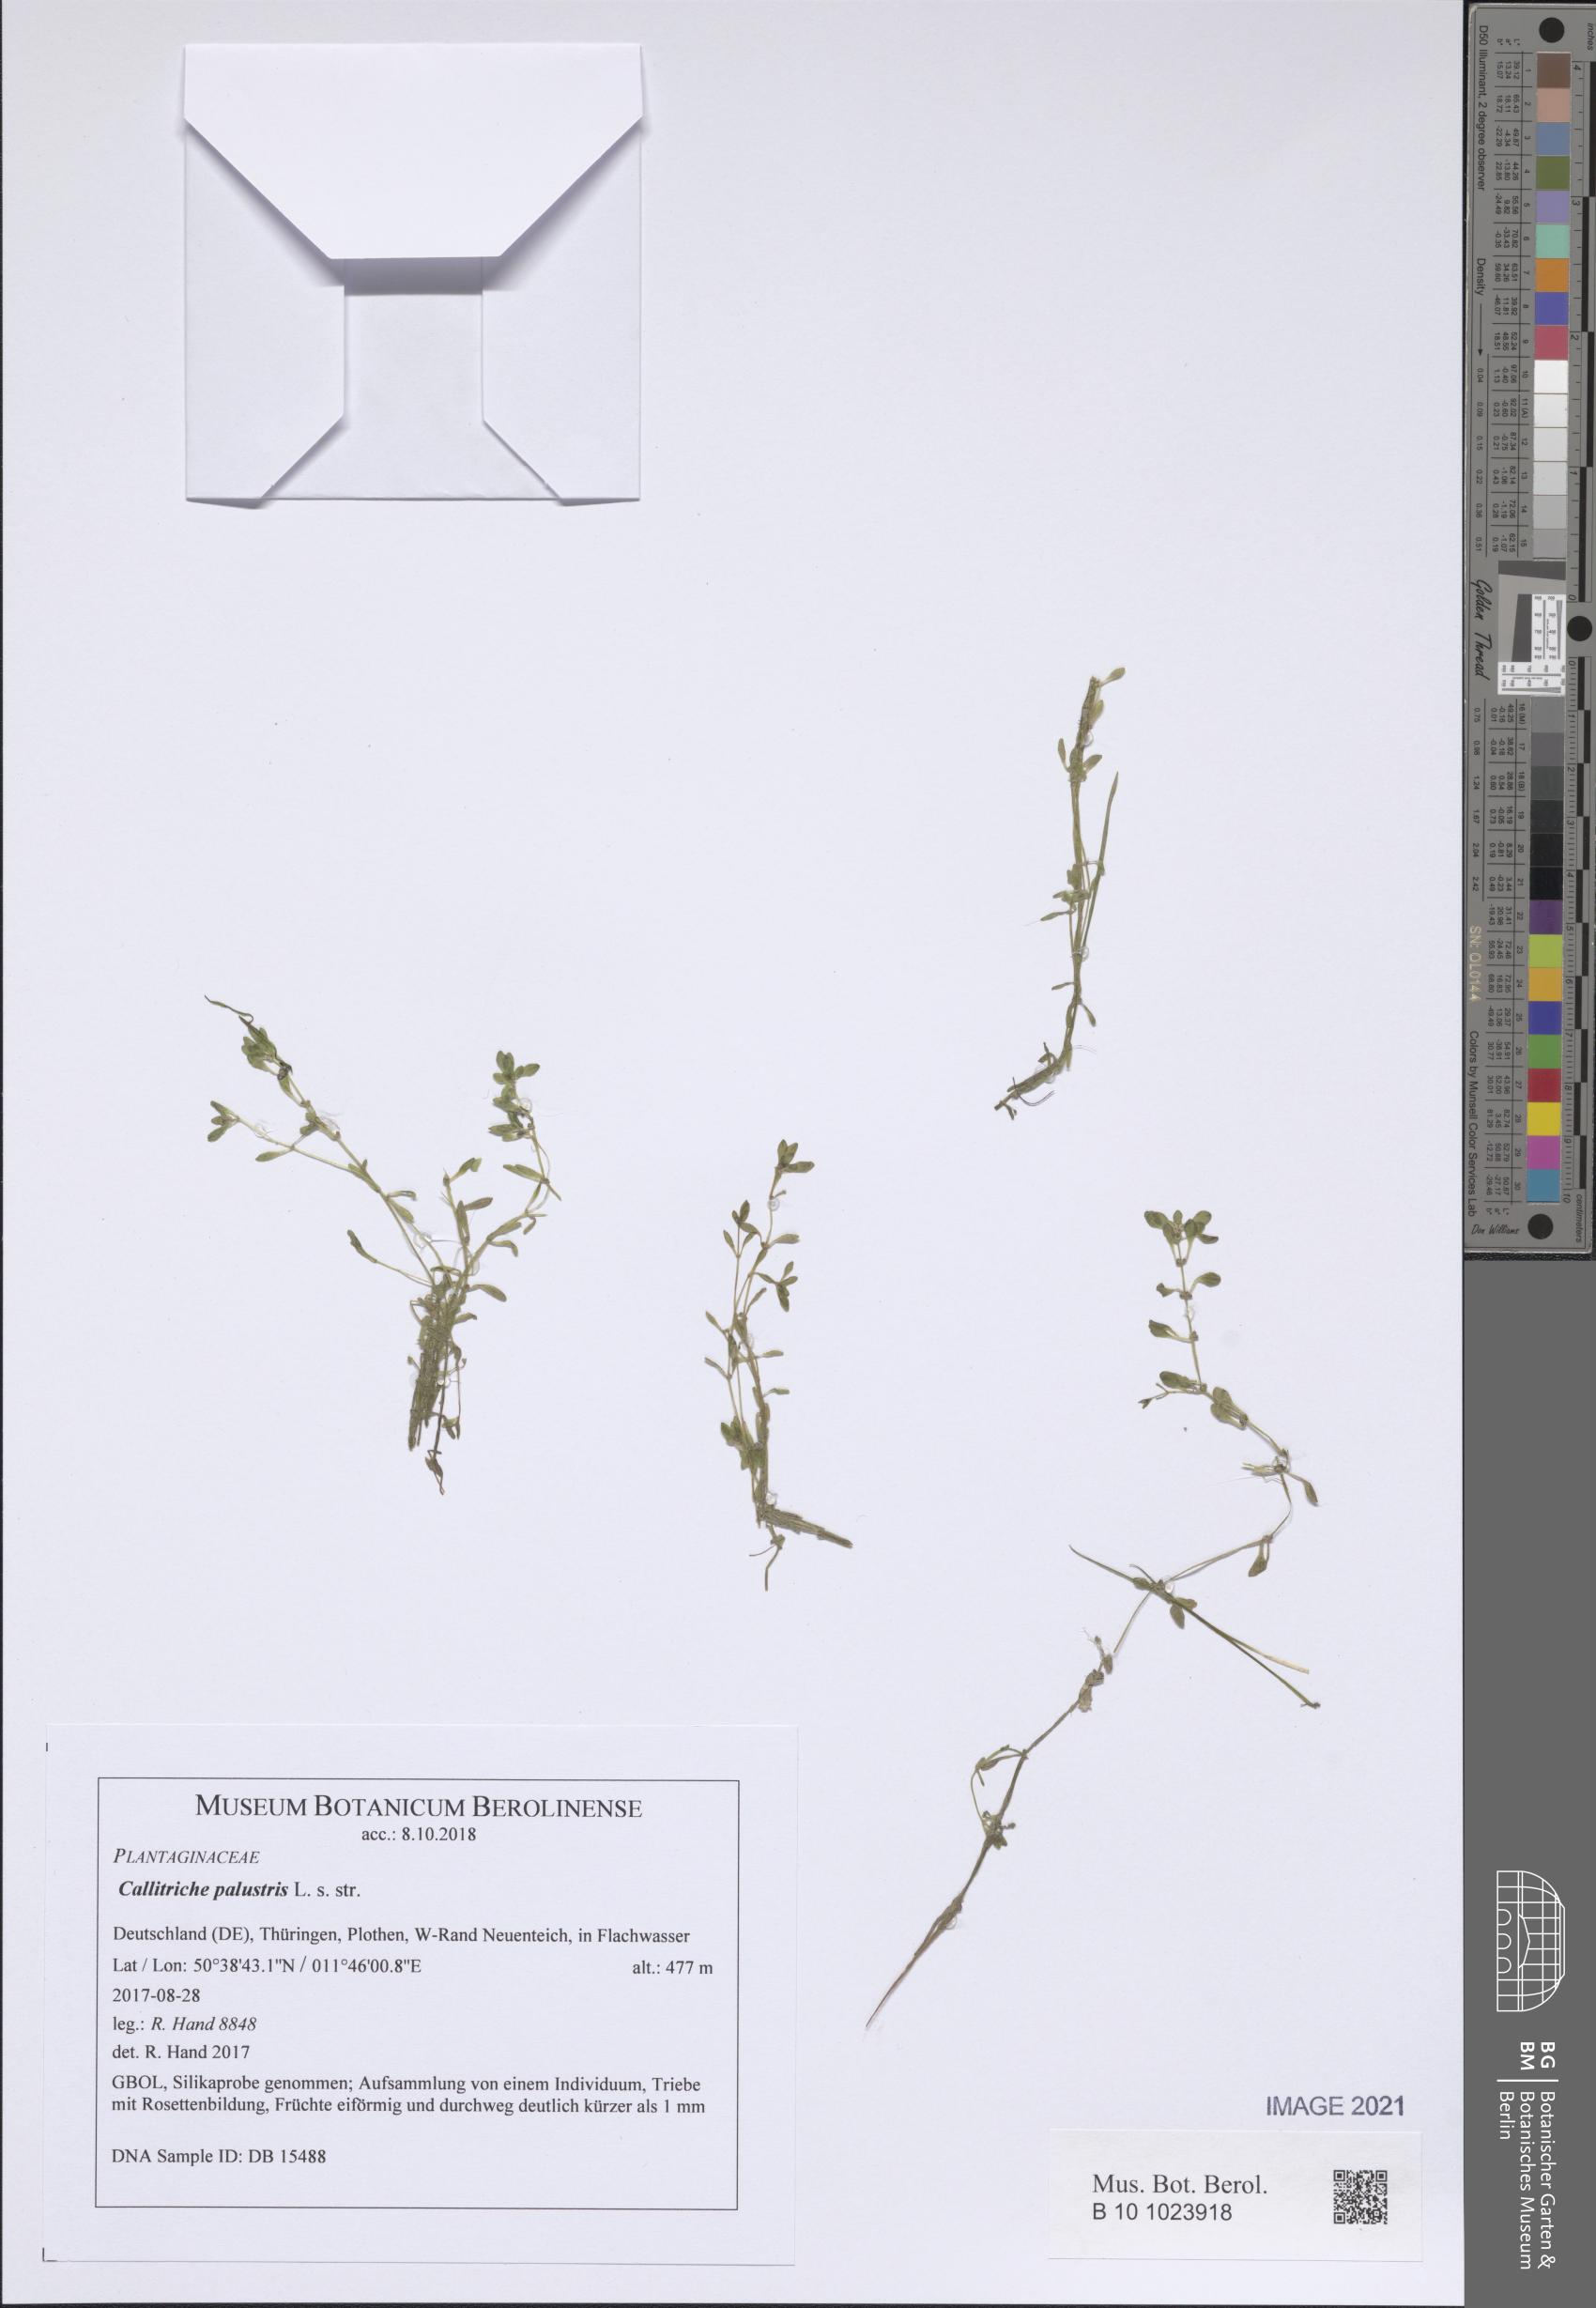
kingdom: Plantae
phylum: Tracheophyta
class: Magnoliopsida
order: Lamiales
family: Plantaginaceae
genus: Callitriche
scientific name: Callitriche palustris
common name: Spring water-starwort
